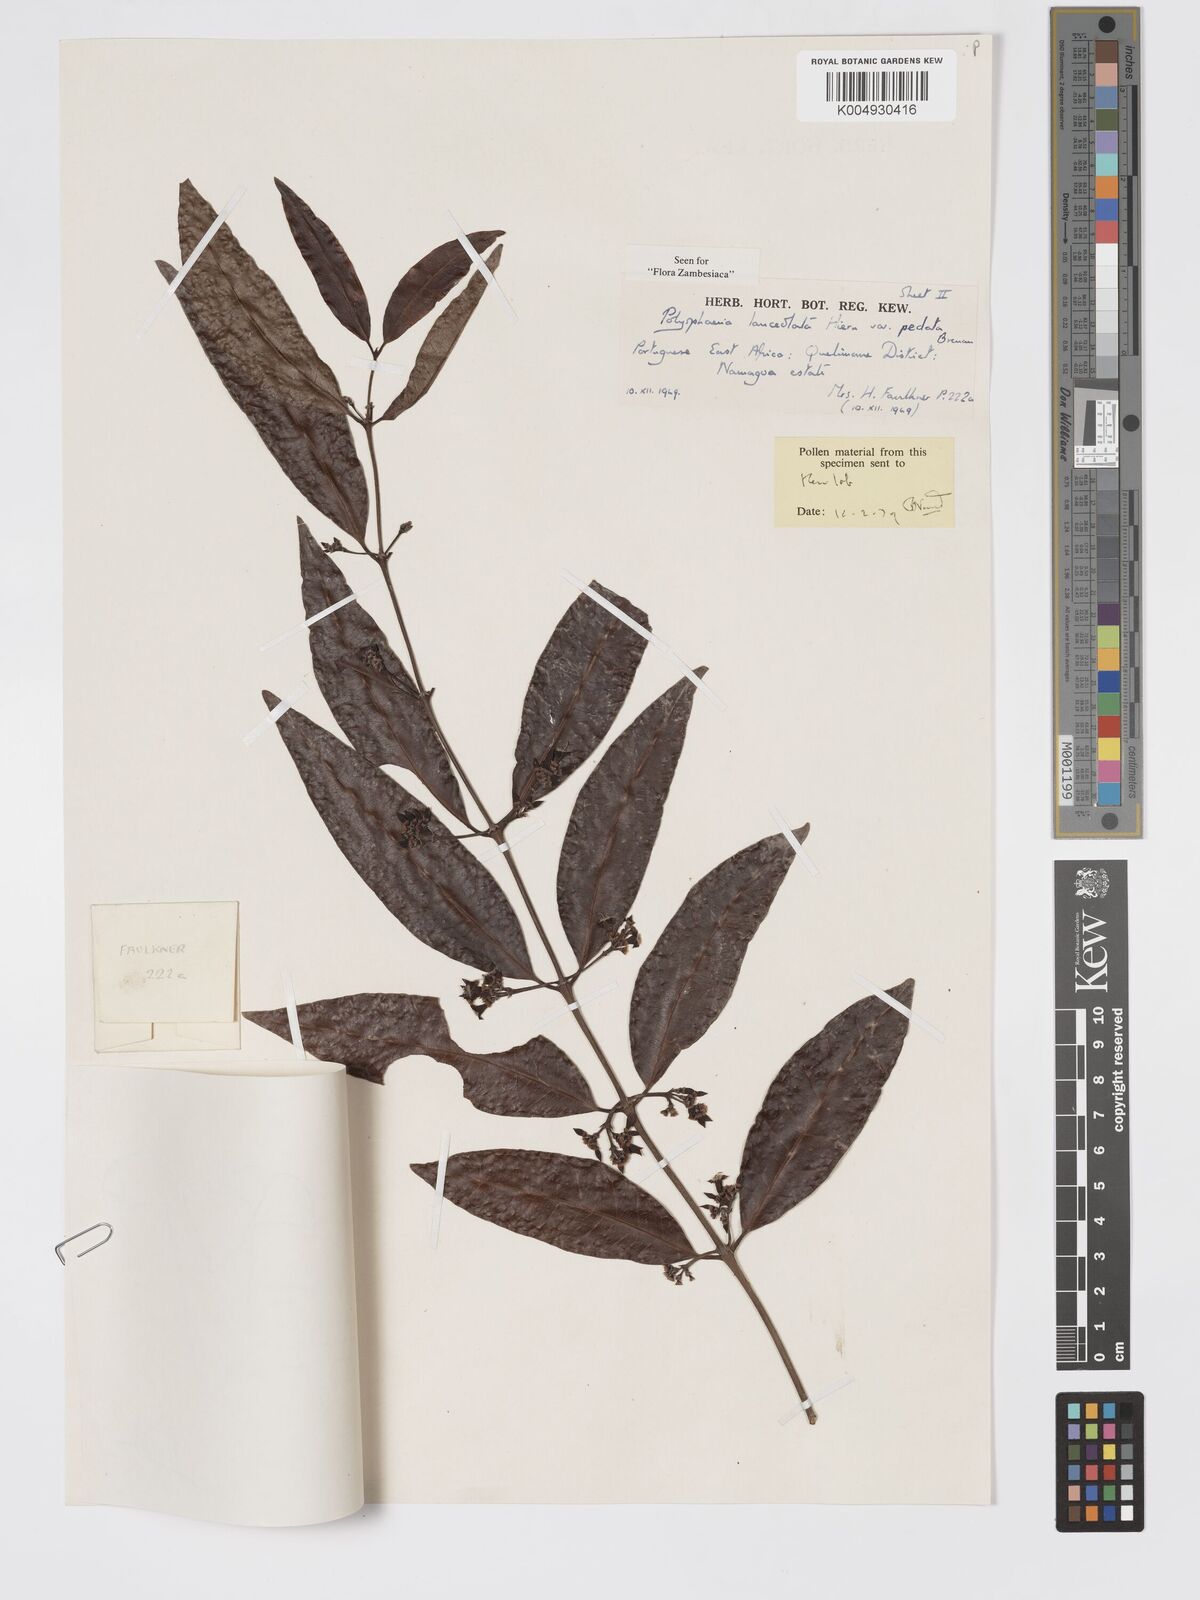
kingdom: Plantae
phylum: Tracheophyta
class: Magnoliopsida
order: Gentianales
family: Rubiaceae
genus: Polysphaeria
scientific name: Polysphaeria lanceolata
